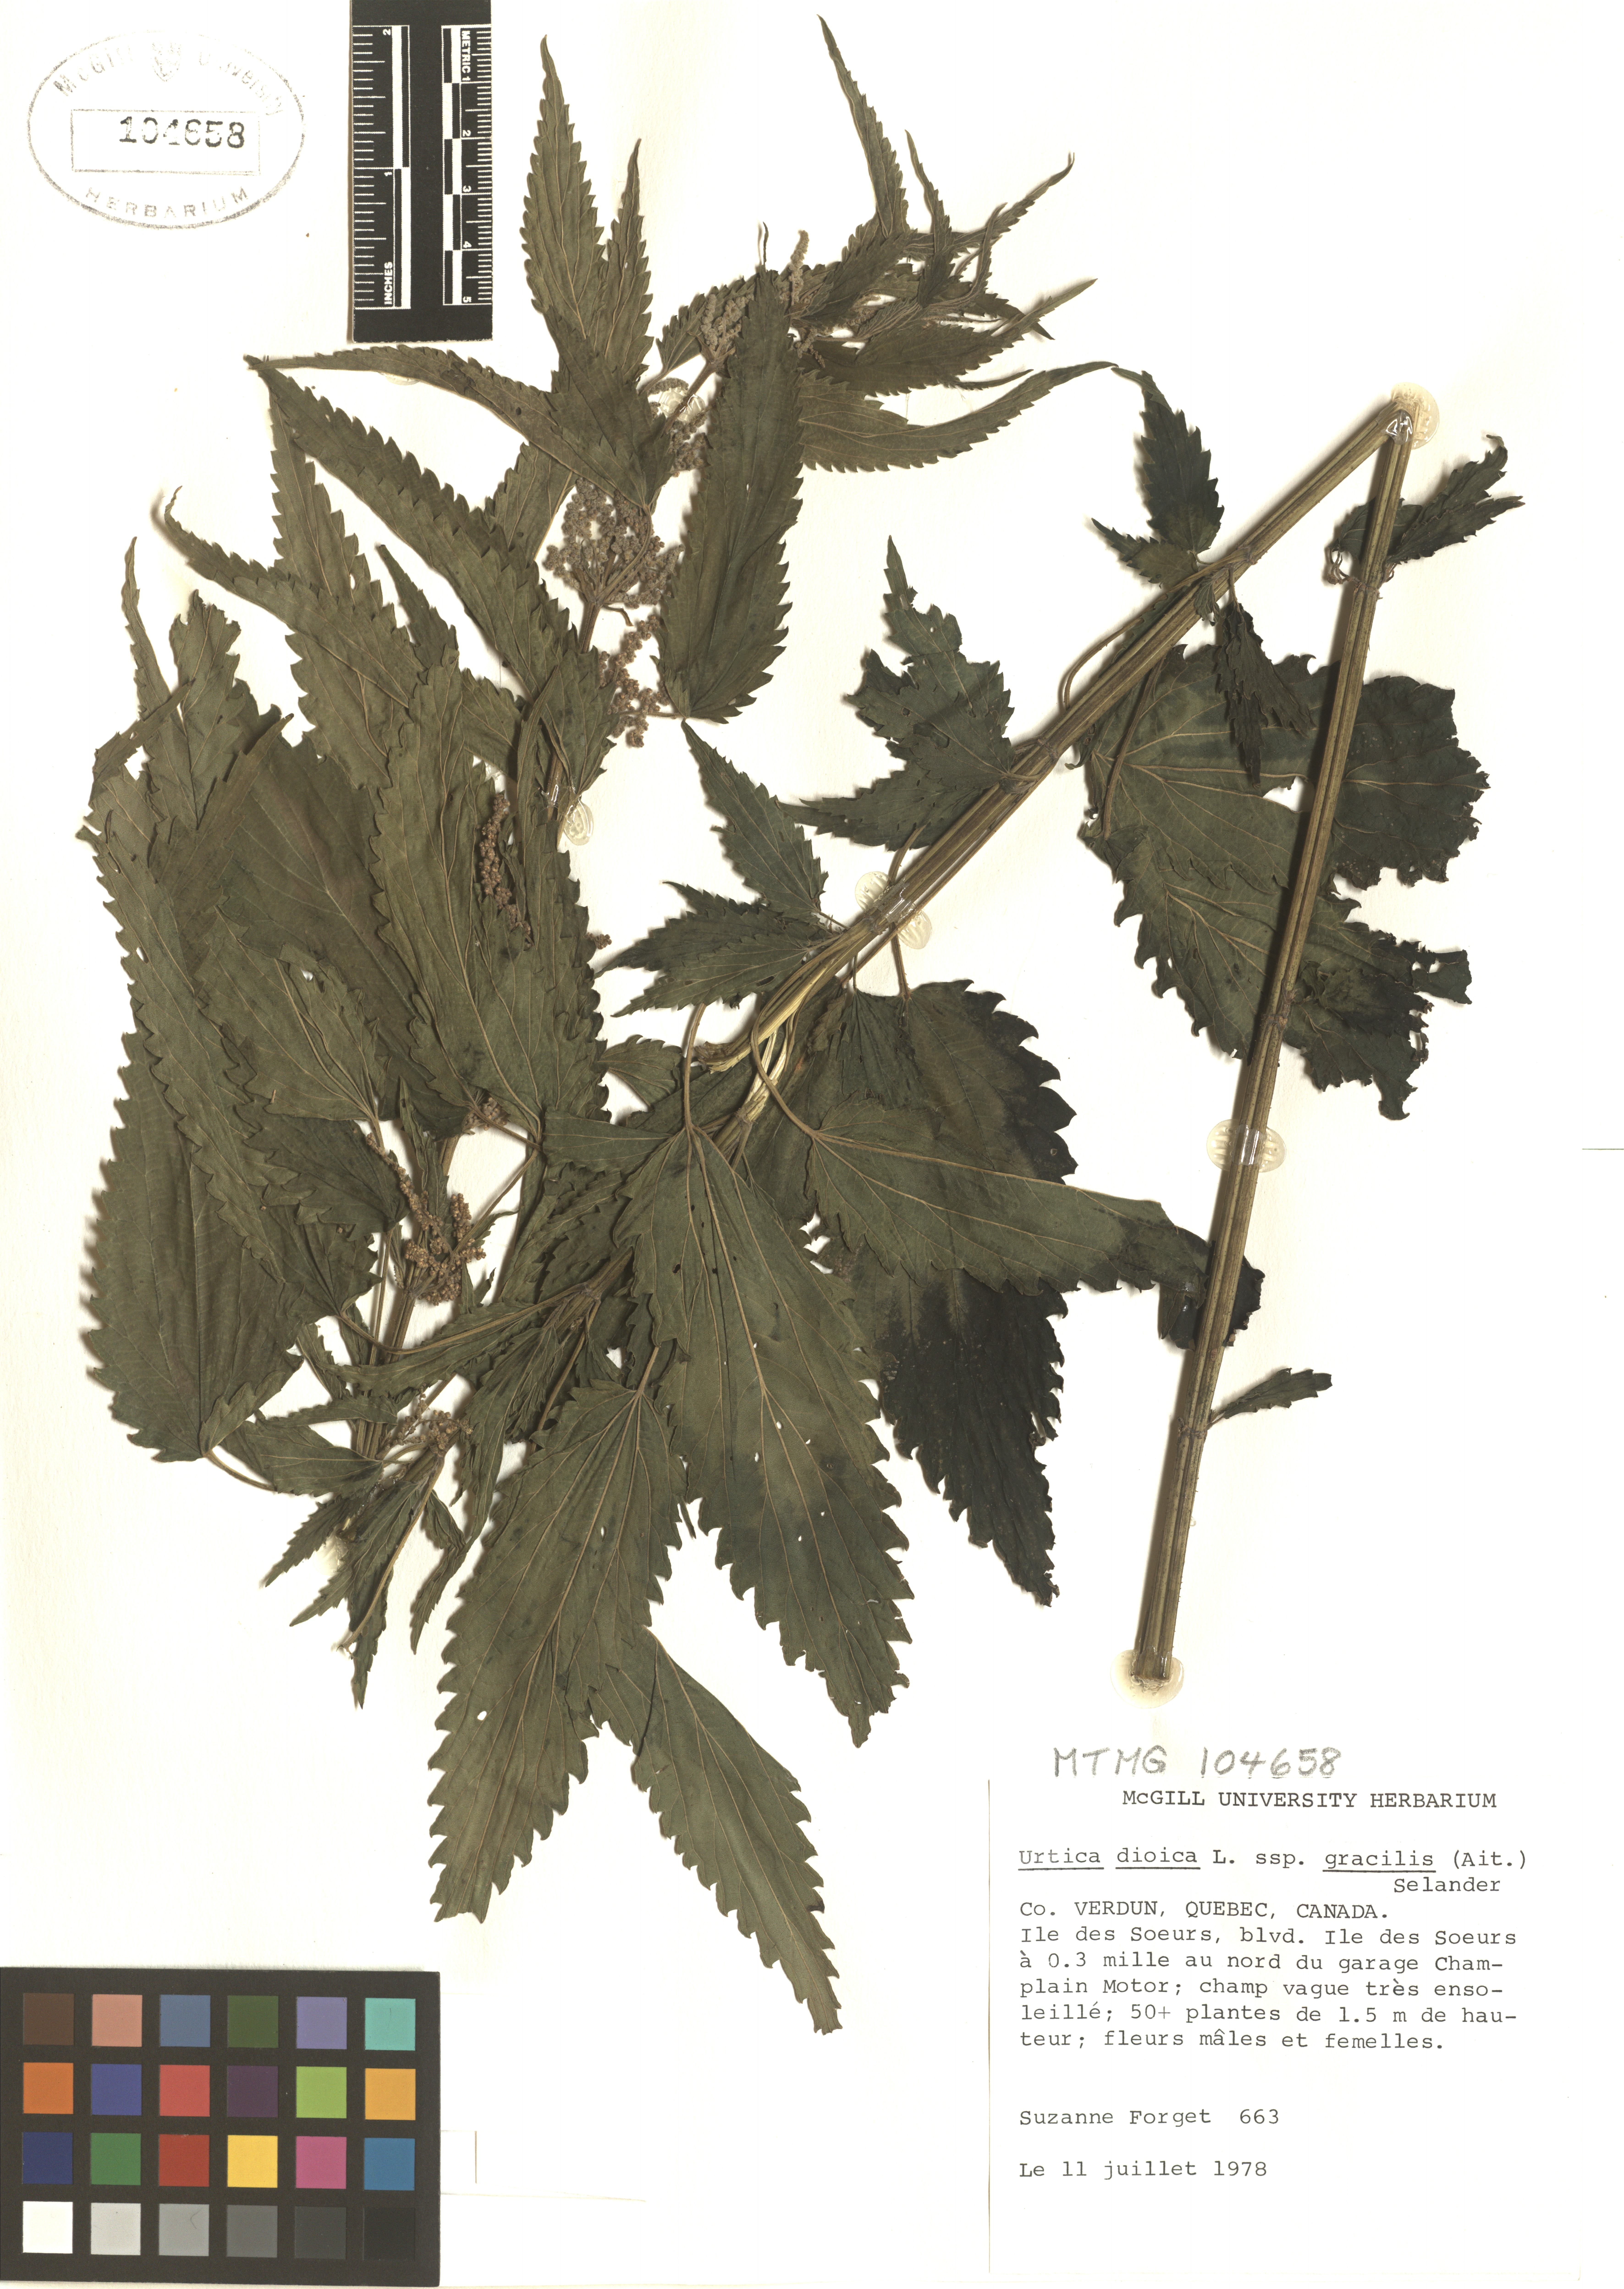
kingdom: Plantae
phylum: Tracheophyta
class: Magnoliopsida
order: Rosales
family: Urticaceae
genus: Urtica
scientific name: Urtica gracilis
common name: Slender stinging nettle
